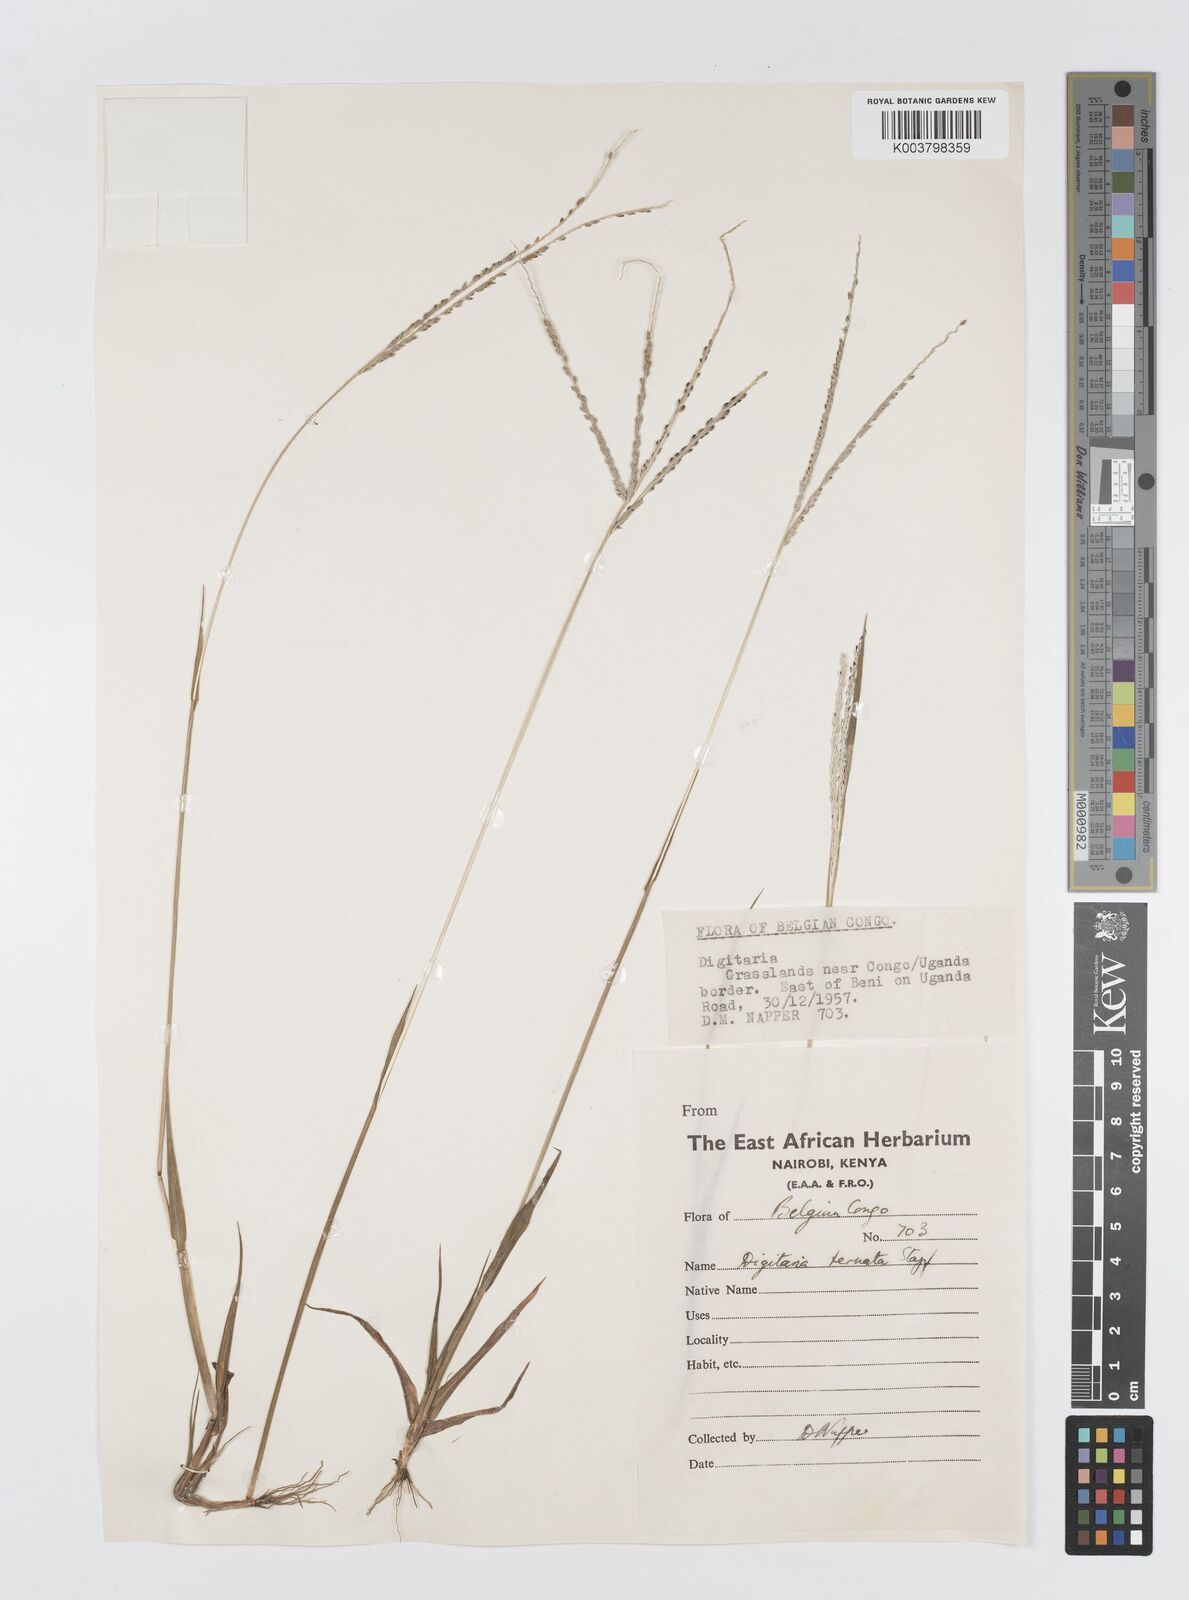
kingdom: Plantae
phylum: Tracheophyta
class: Liliopsida
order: Poales
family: Poaceae
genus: Digitaria
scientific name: Digitaria ternata
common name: Blackseed crabgrass
